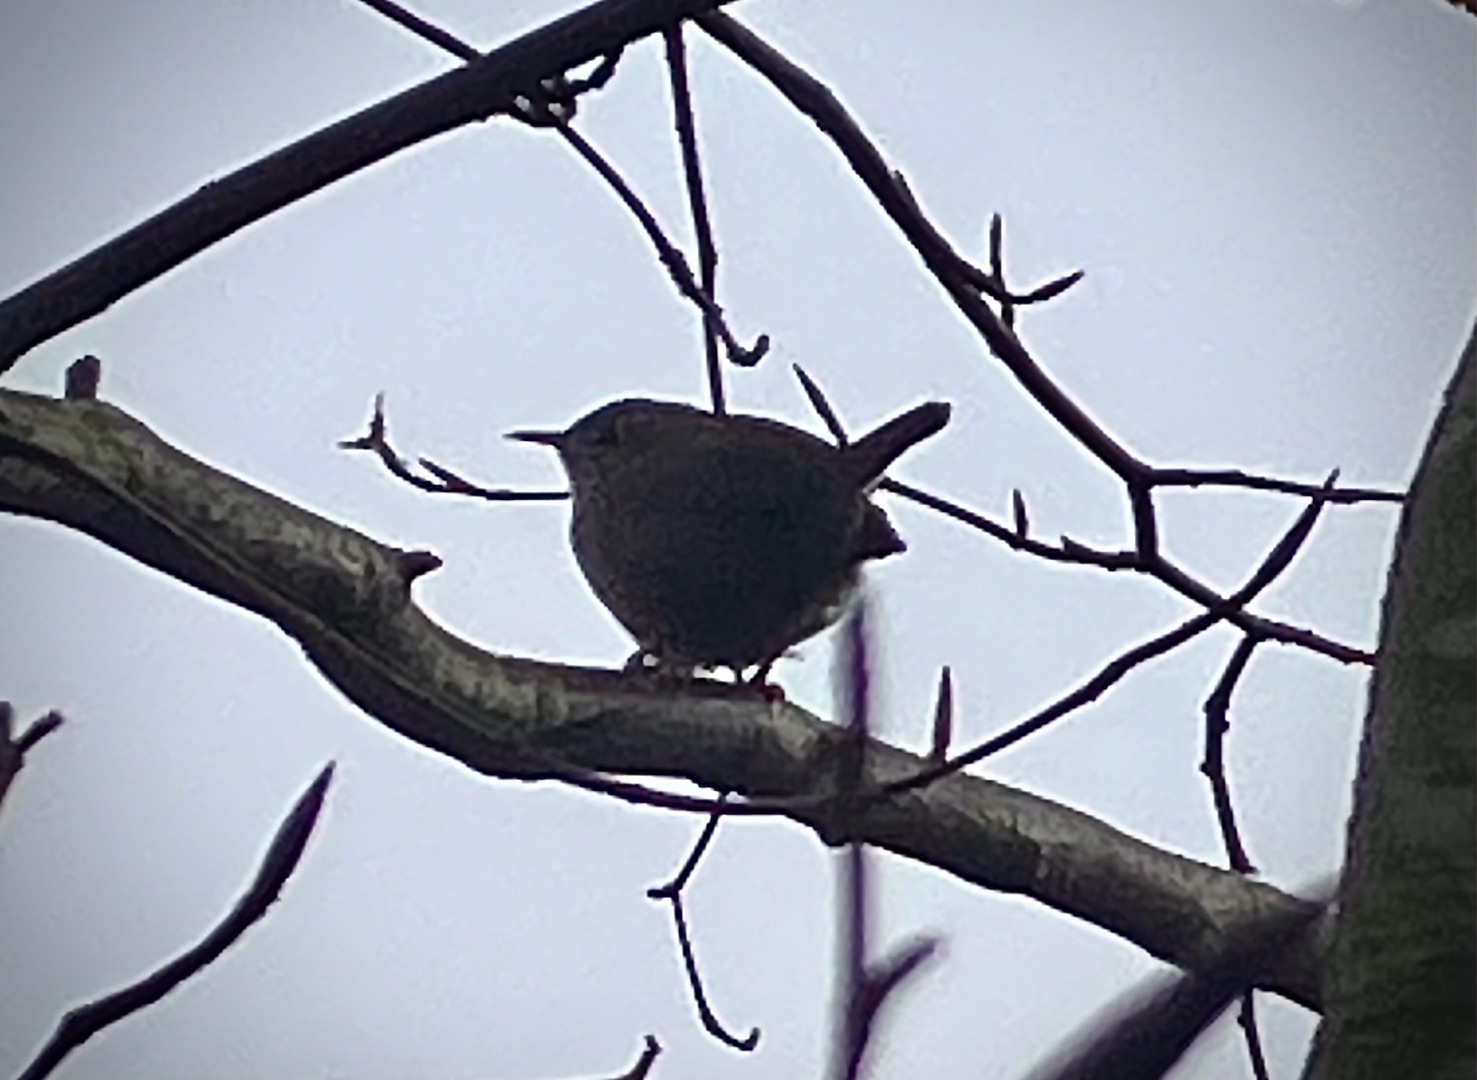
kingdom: Animalia
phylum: Chordata
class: Aves
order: Passeriformes
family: Troglodytidae
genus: Troglodytes
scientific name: Troglodytes troglodytes
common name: Gærdesmutte
